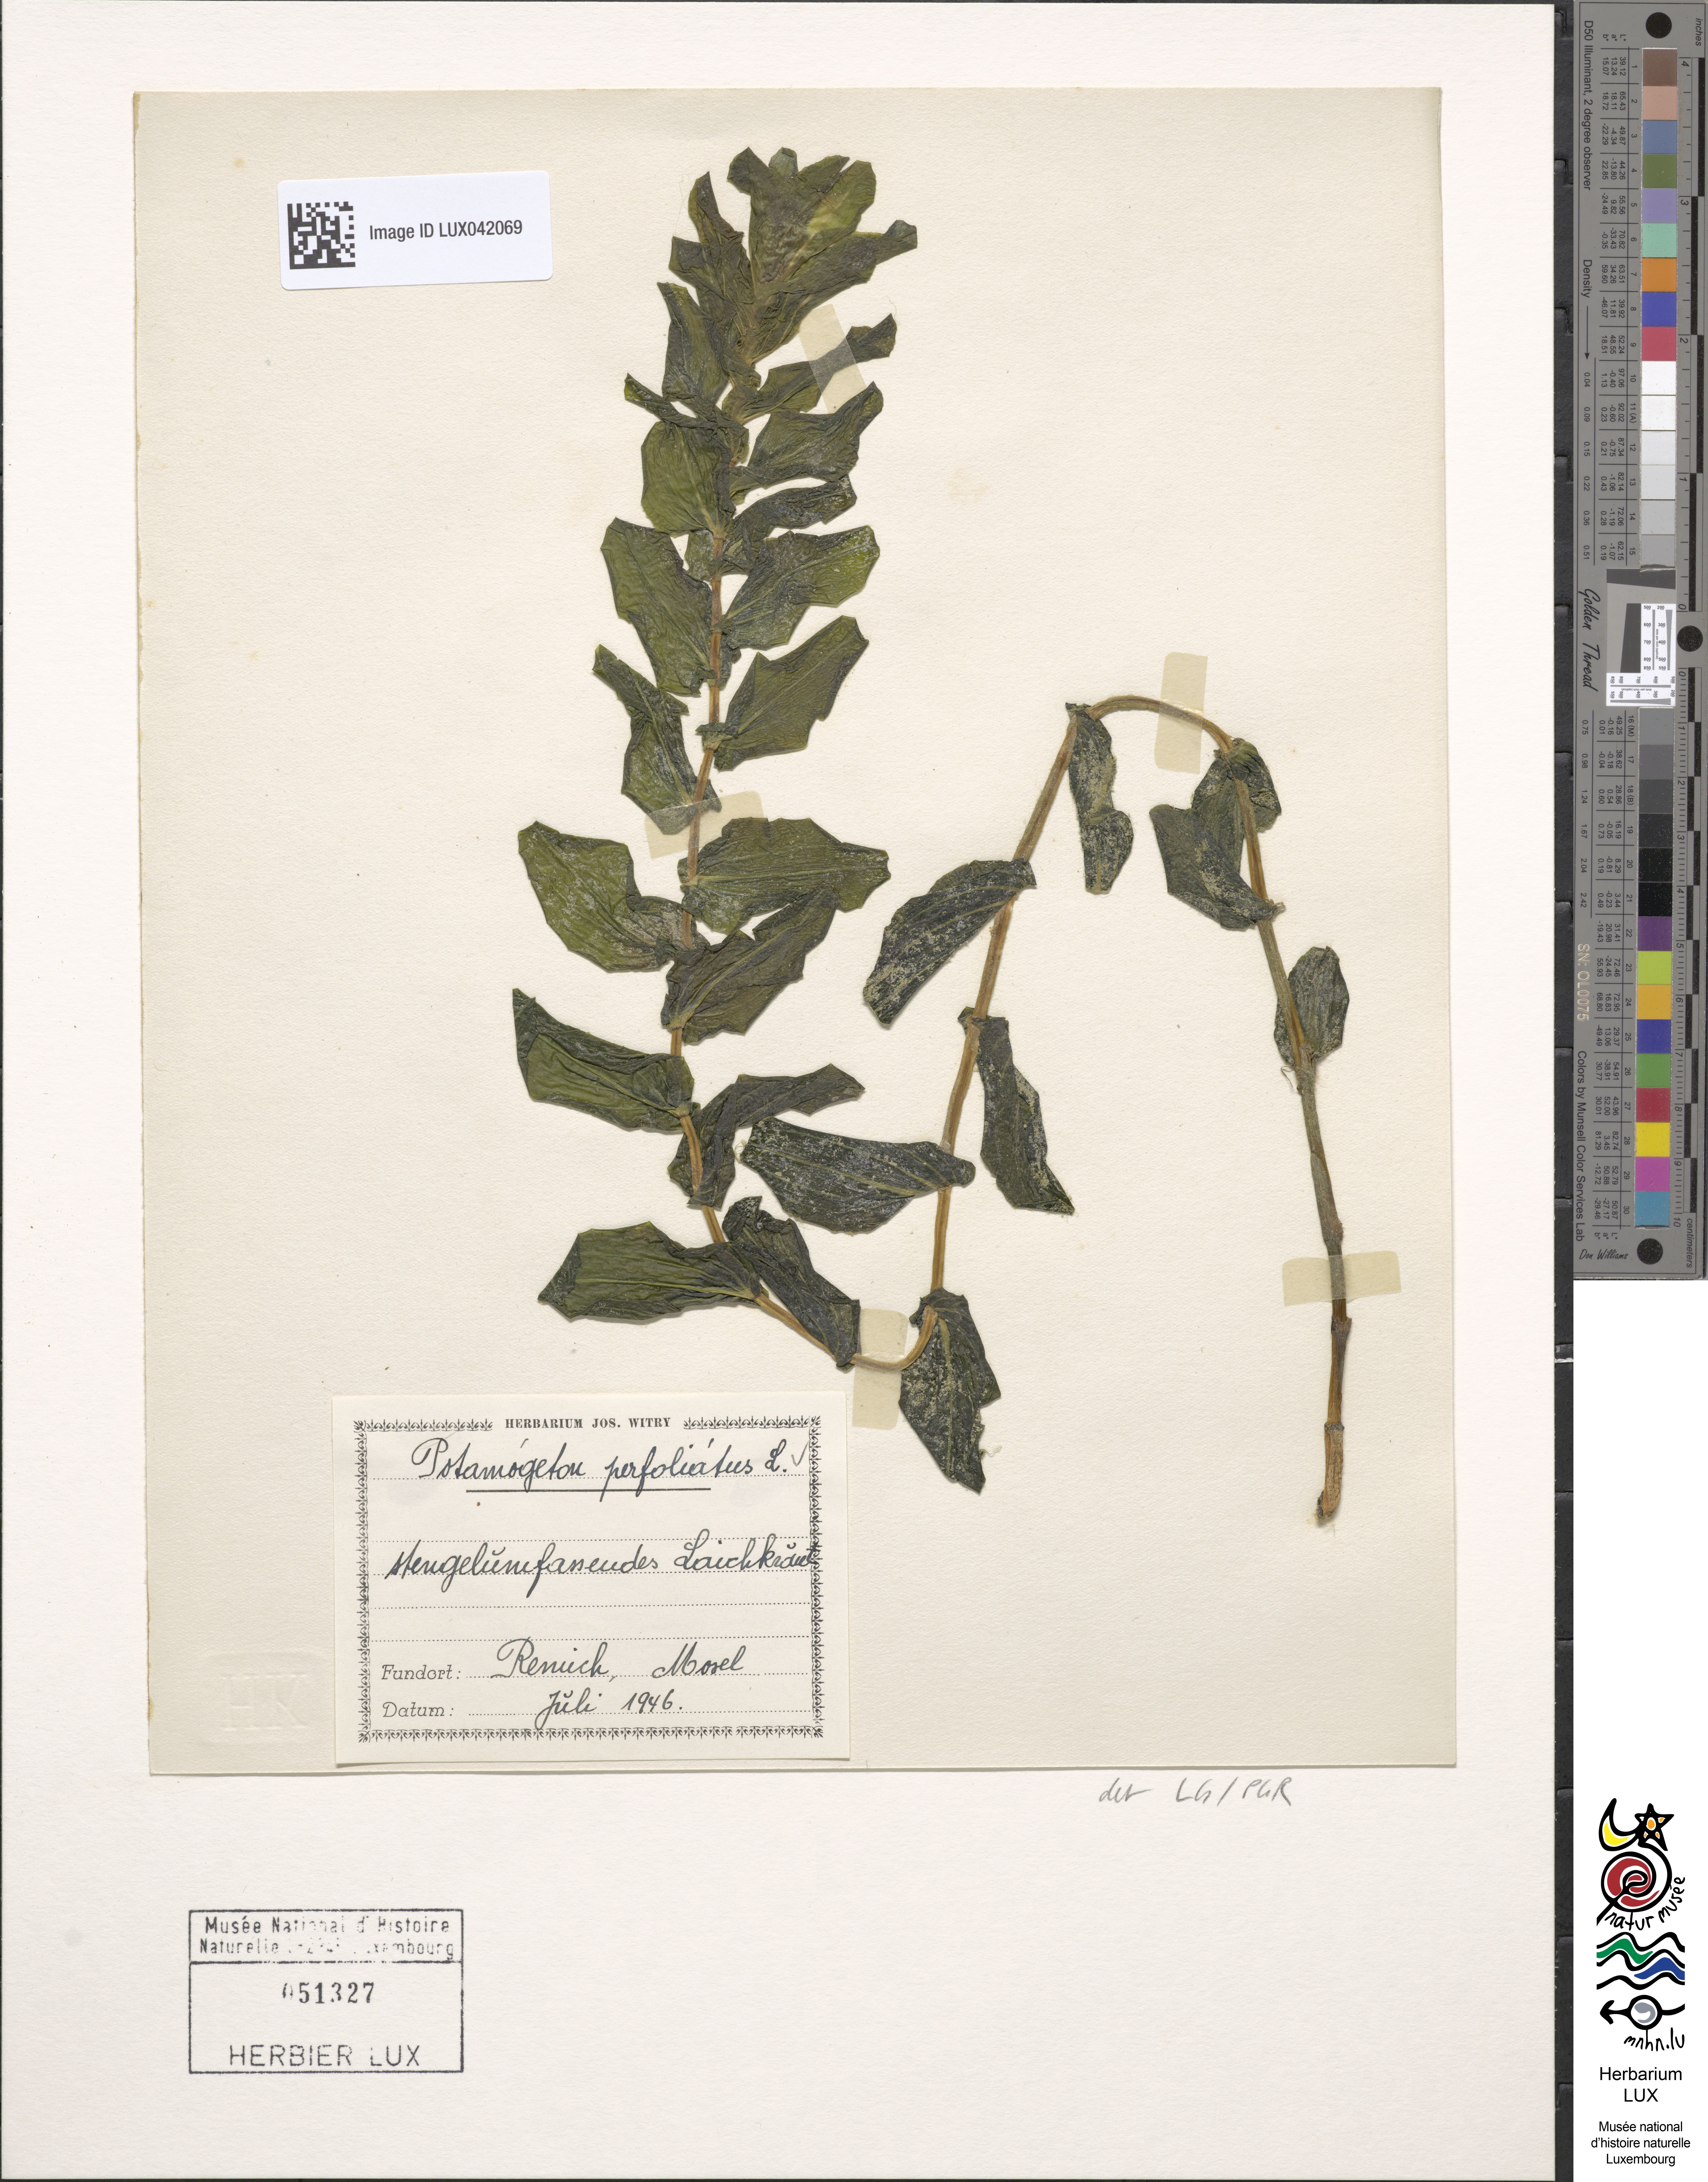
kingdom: Plantae
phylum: Tracheophyta
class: Liliopsida
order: Alismatales
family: Potamogetonaceae
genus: Potamogeton
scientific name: Potamogeton perfoliatus
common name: Perfoliate pondweed
